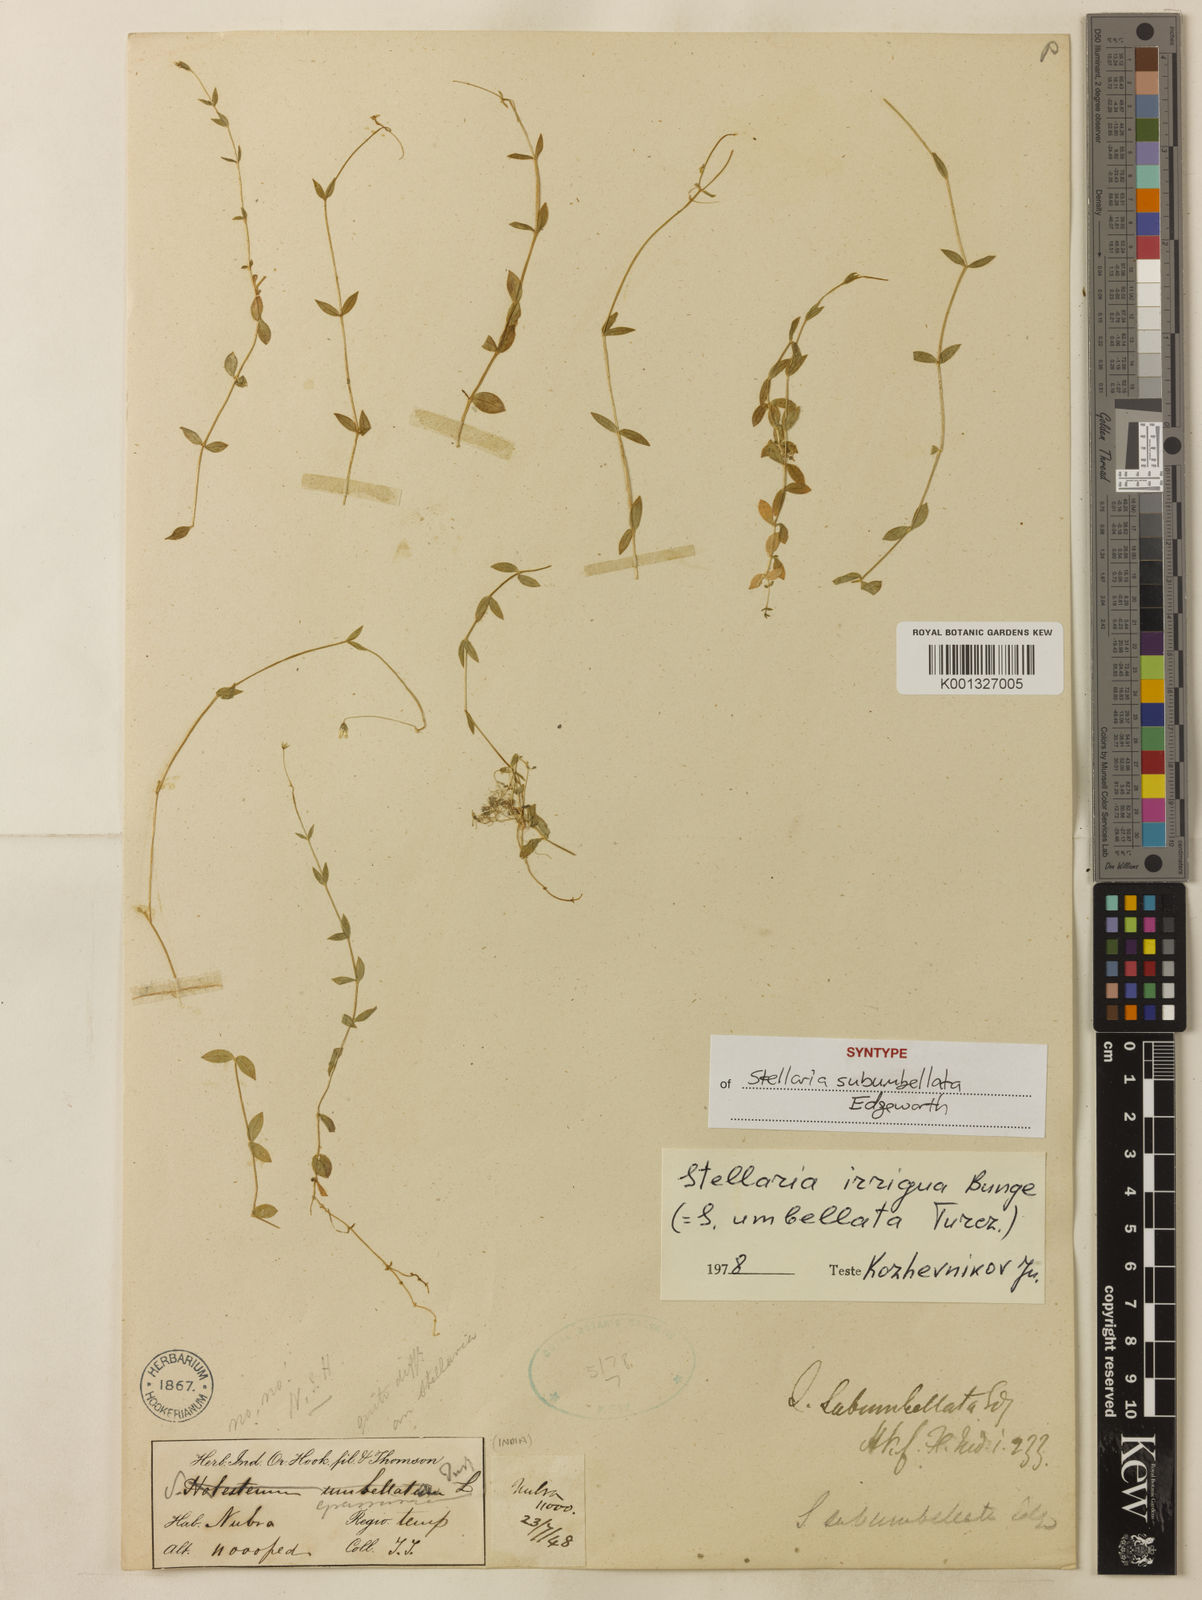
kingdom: Plantae
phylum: Tracheophyta
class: Magnoliopsida
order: Caryophyllales
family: Caryophyllaceae
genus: Stellaria
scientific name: Stellaria subumbellata
